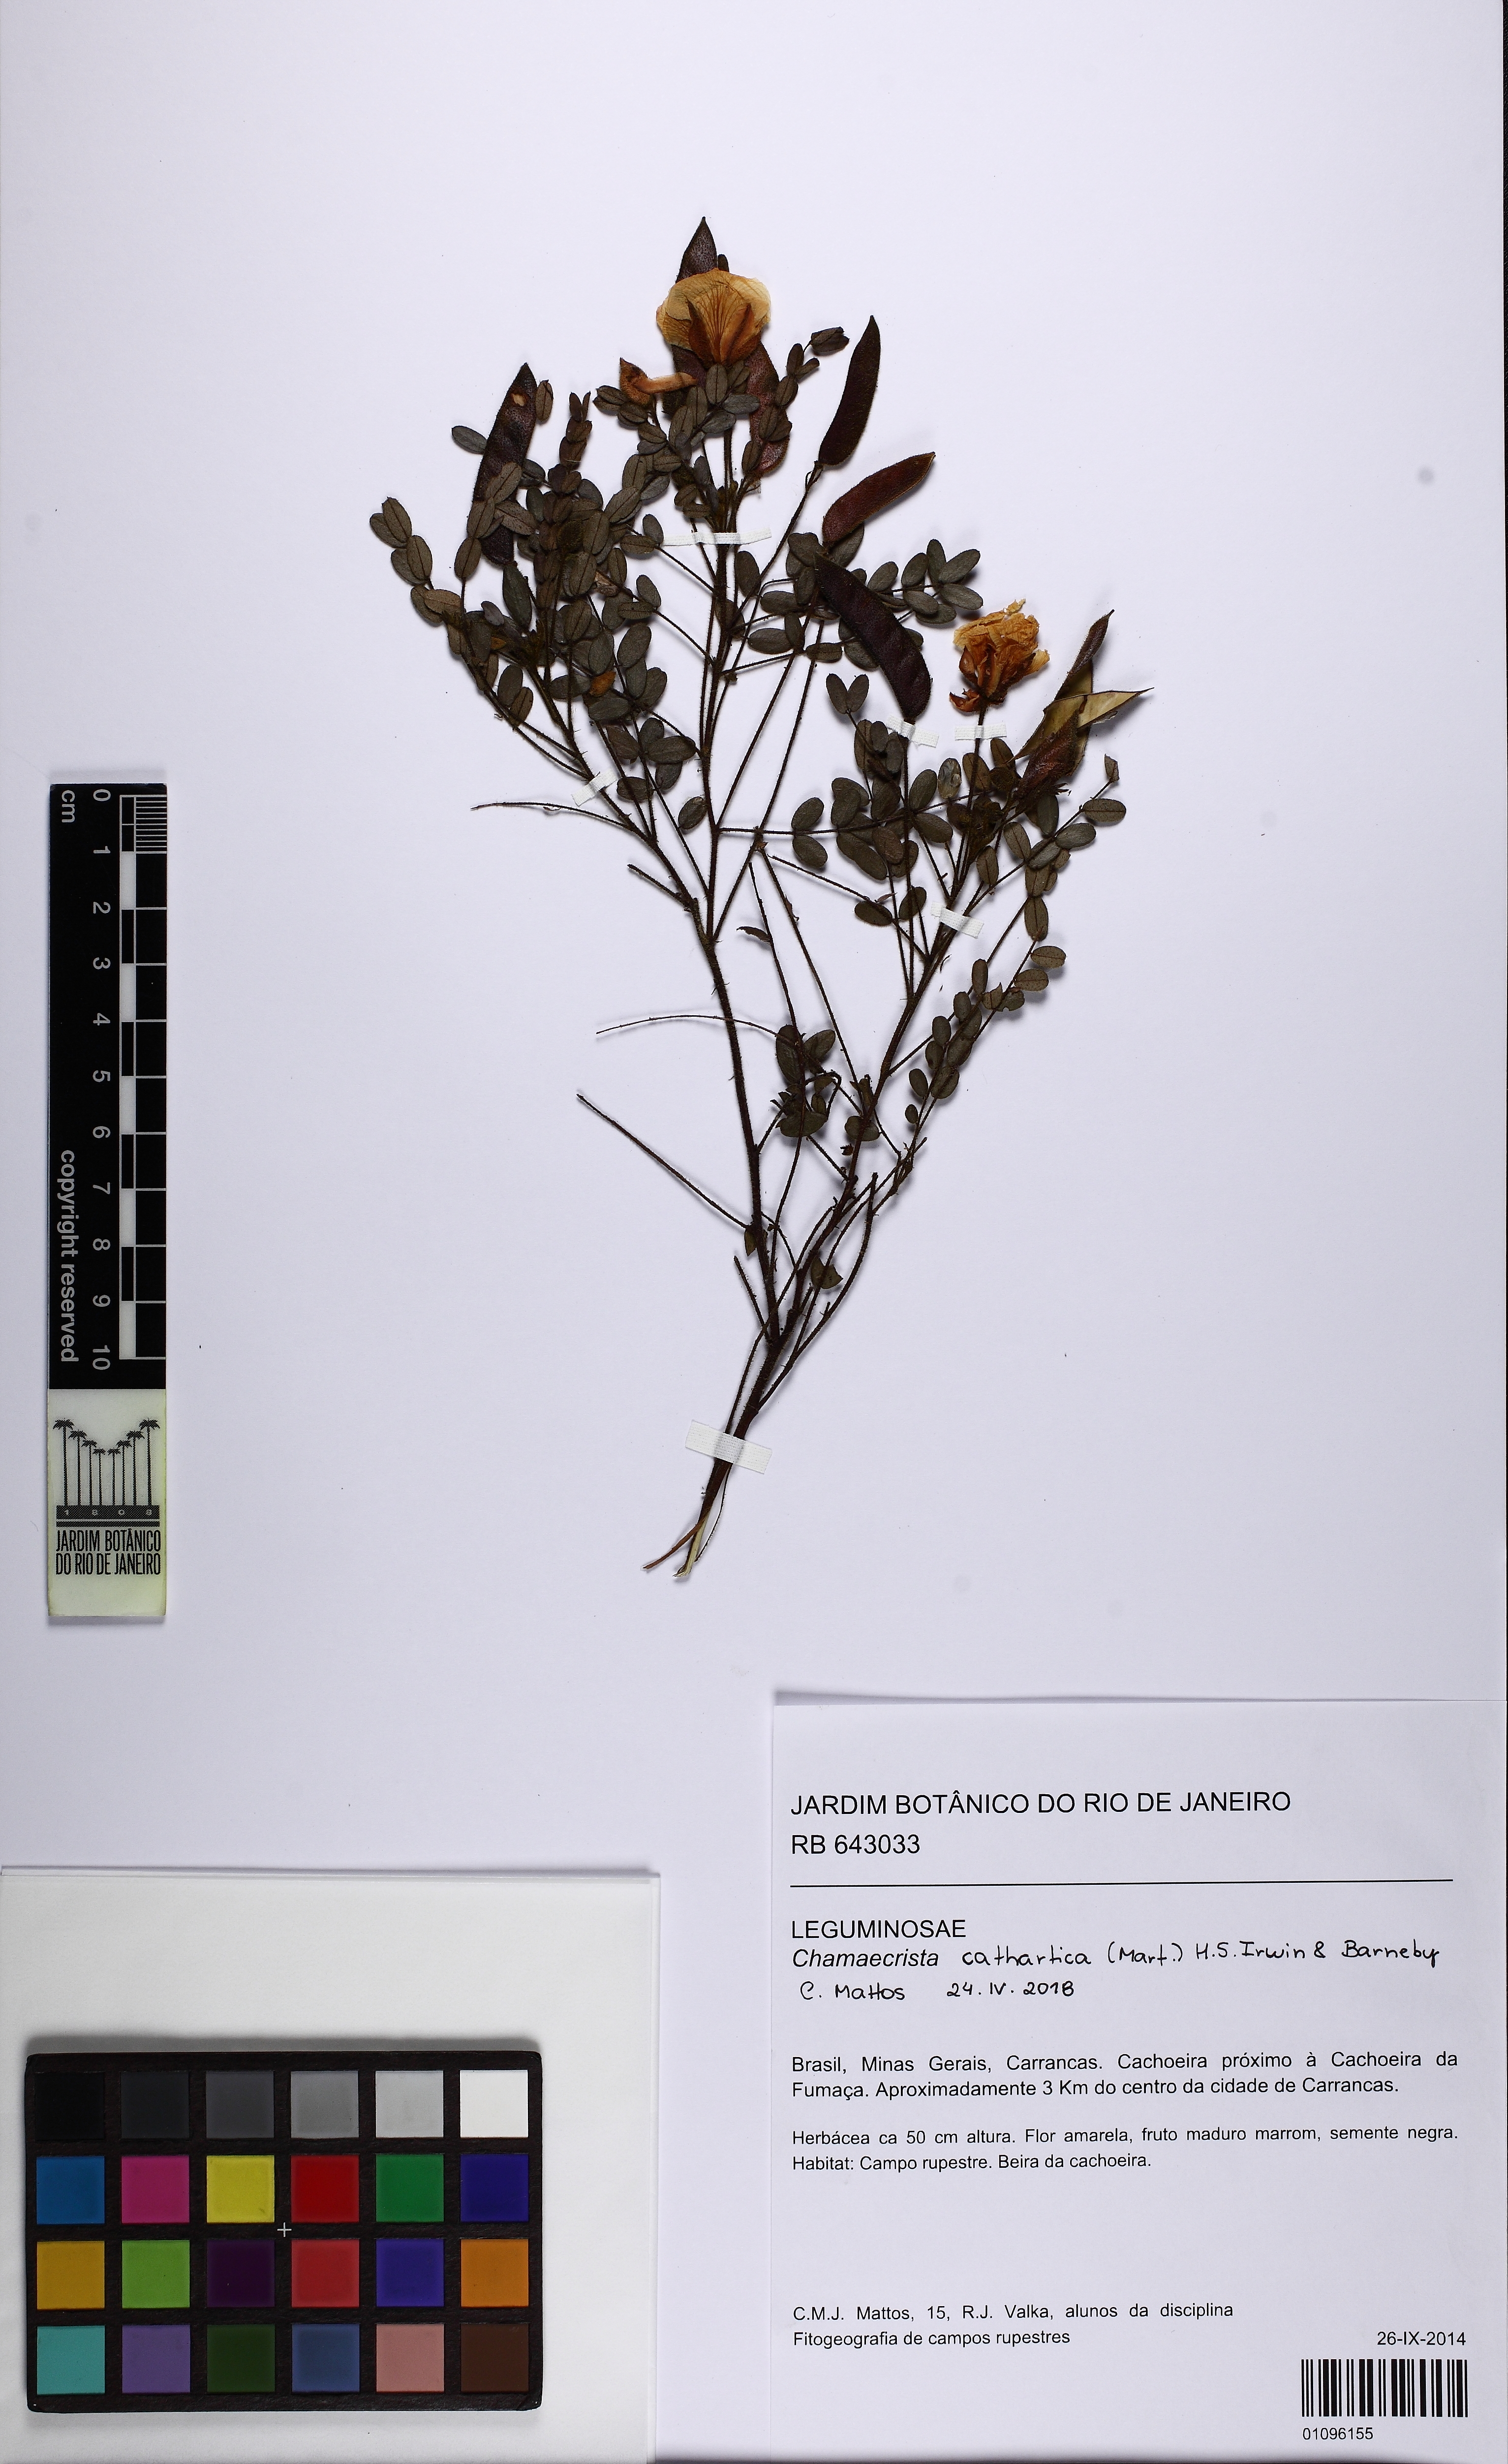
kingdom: Plantae
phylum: Tracheophyta
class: Magnoliopsida
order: Fabales
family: Fabaceae
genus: Chamaecrista
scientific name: Chamaecrista cathartica
